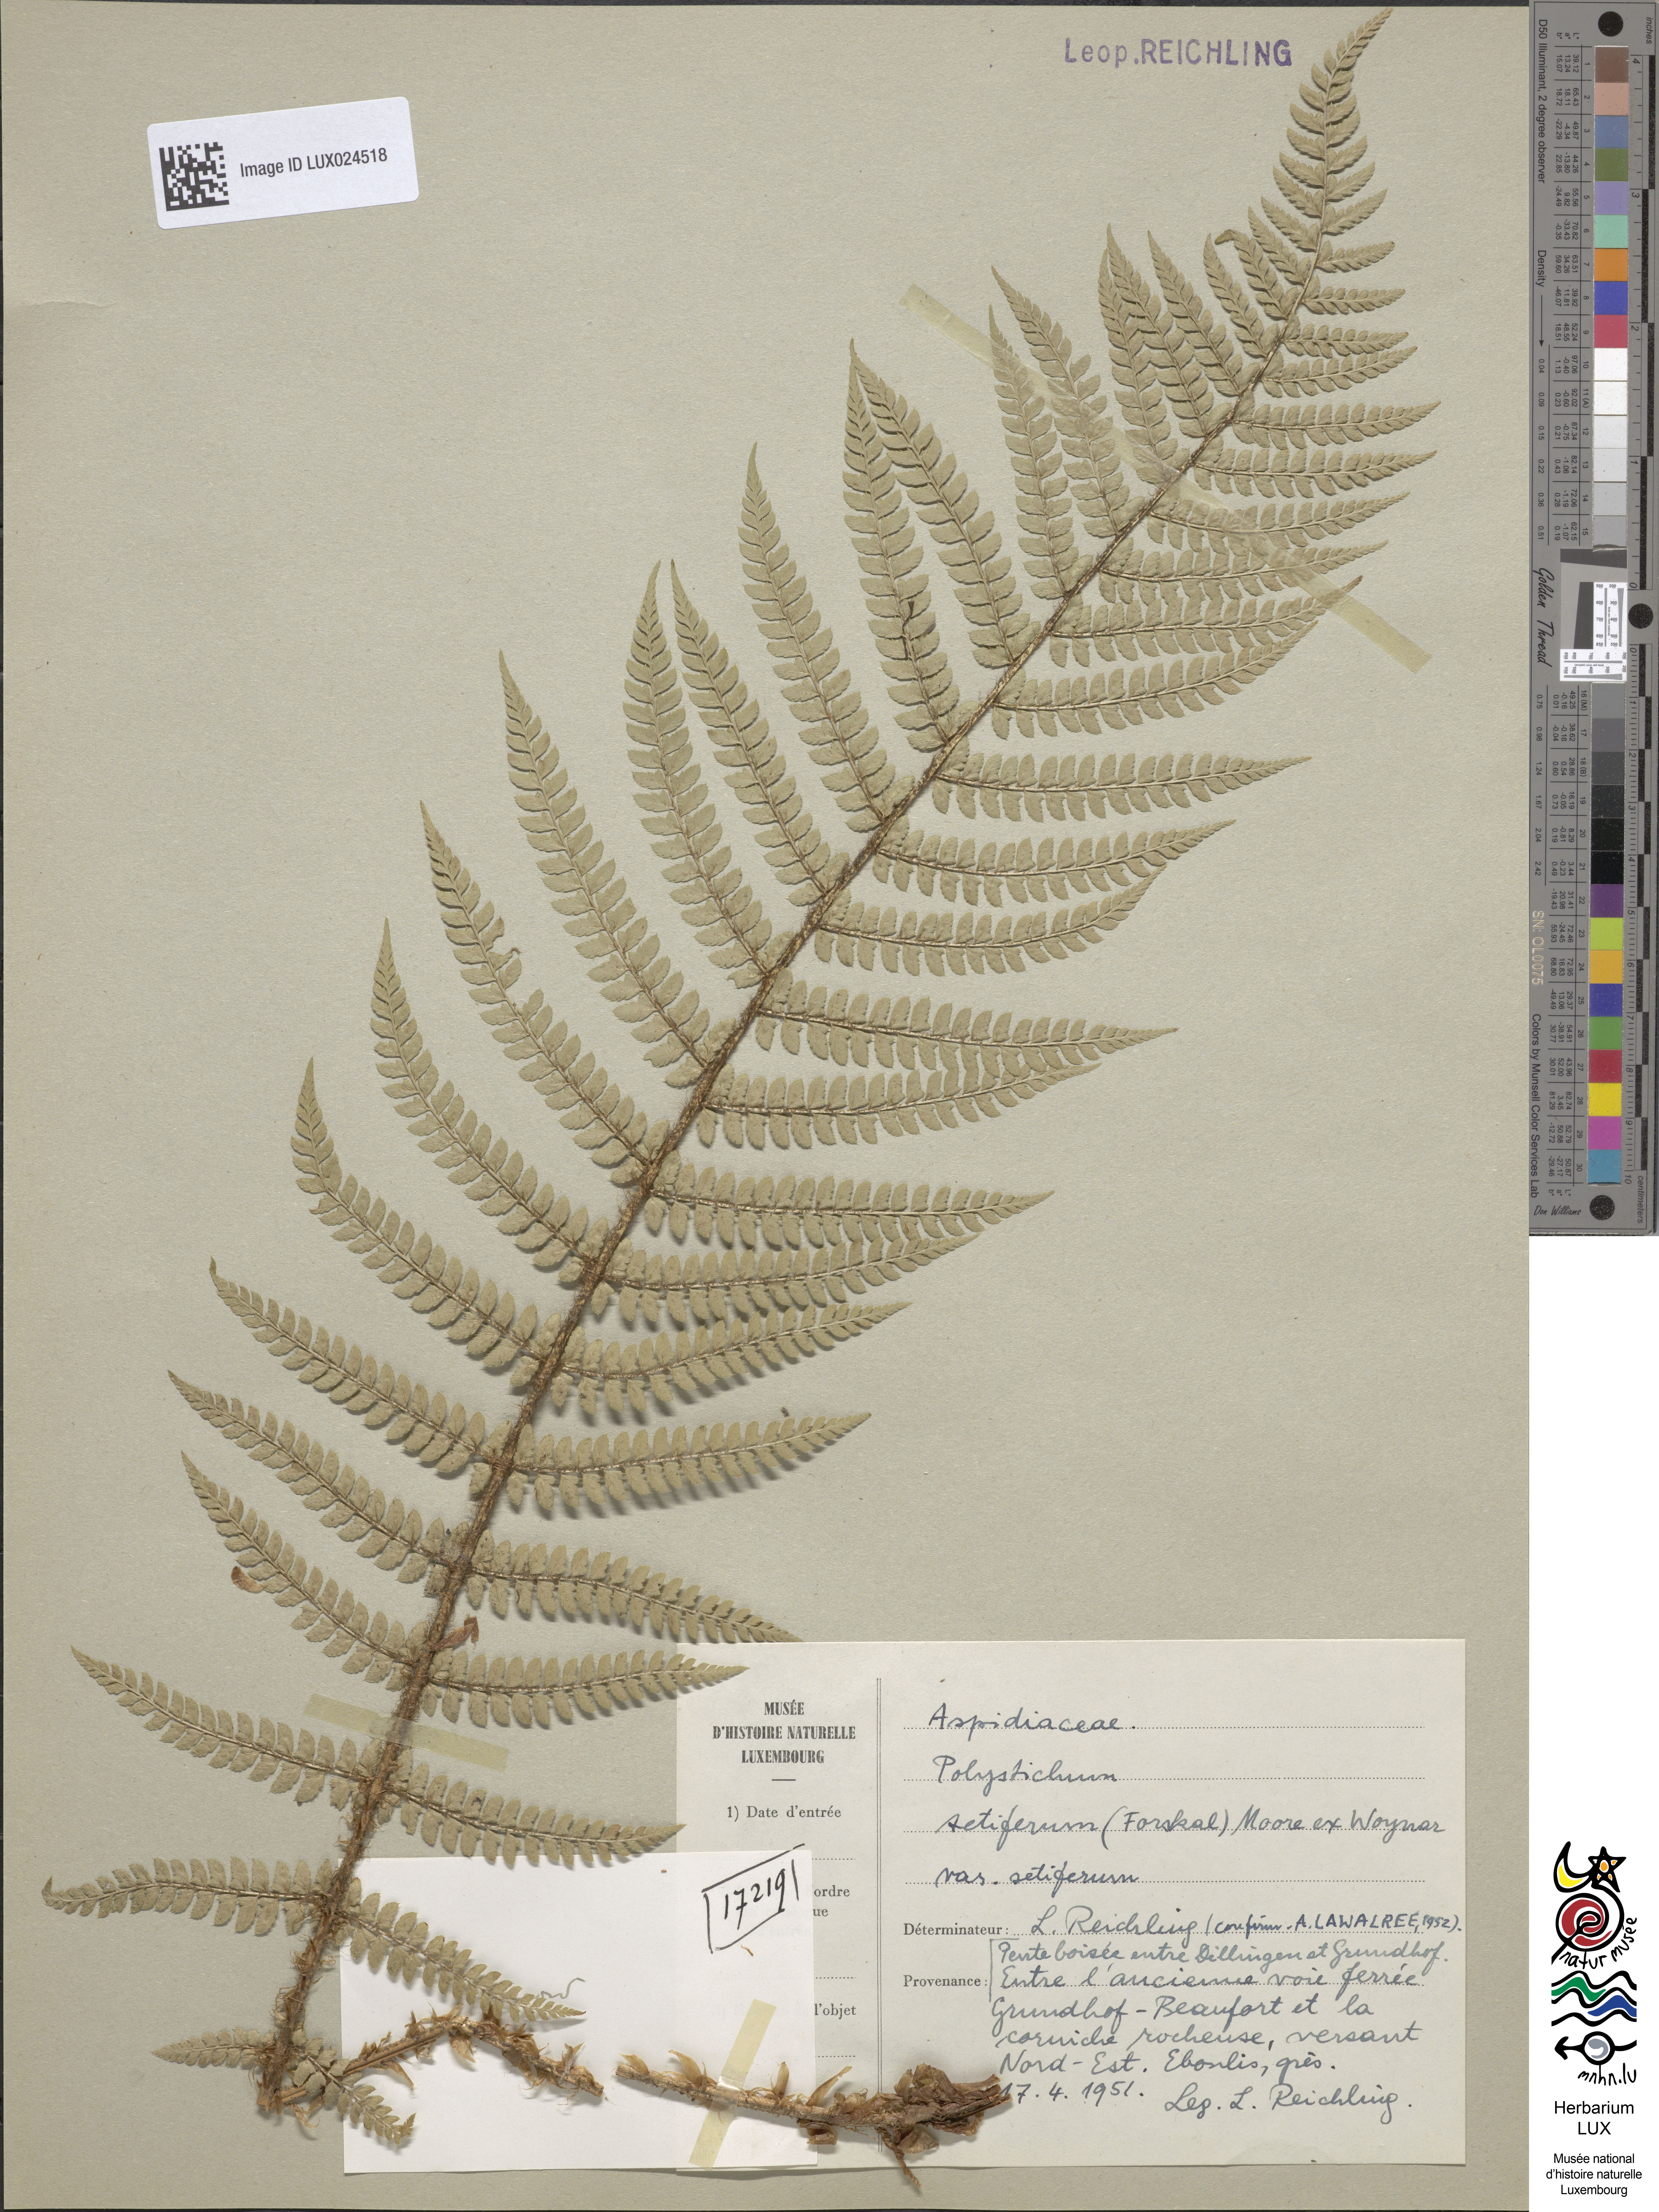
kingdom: Plantae
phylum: Tracheophyta
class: Polypodiopsida
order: Polypodiales
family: Dryopteridaceae
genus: Polystichum
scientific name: Polystichum setiferum
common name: Soft shield-fern
